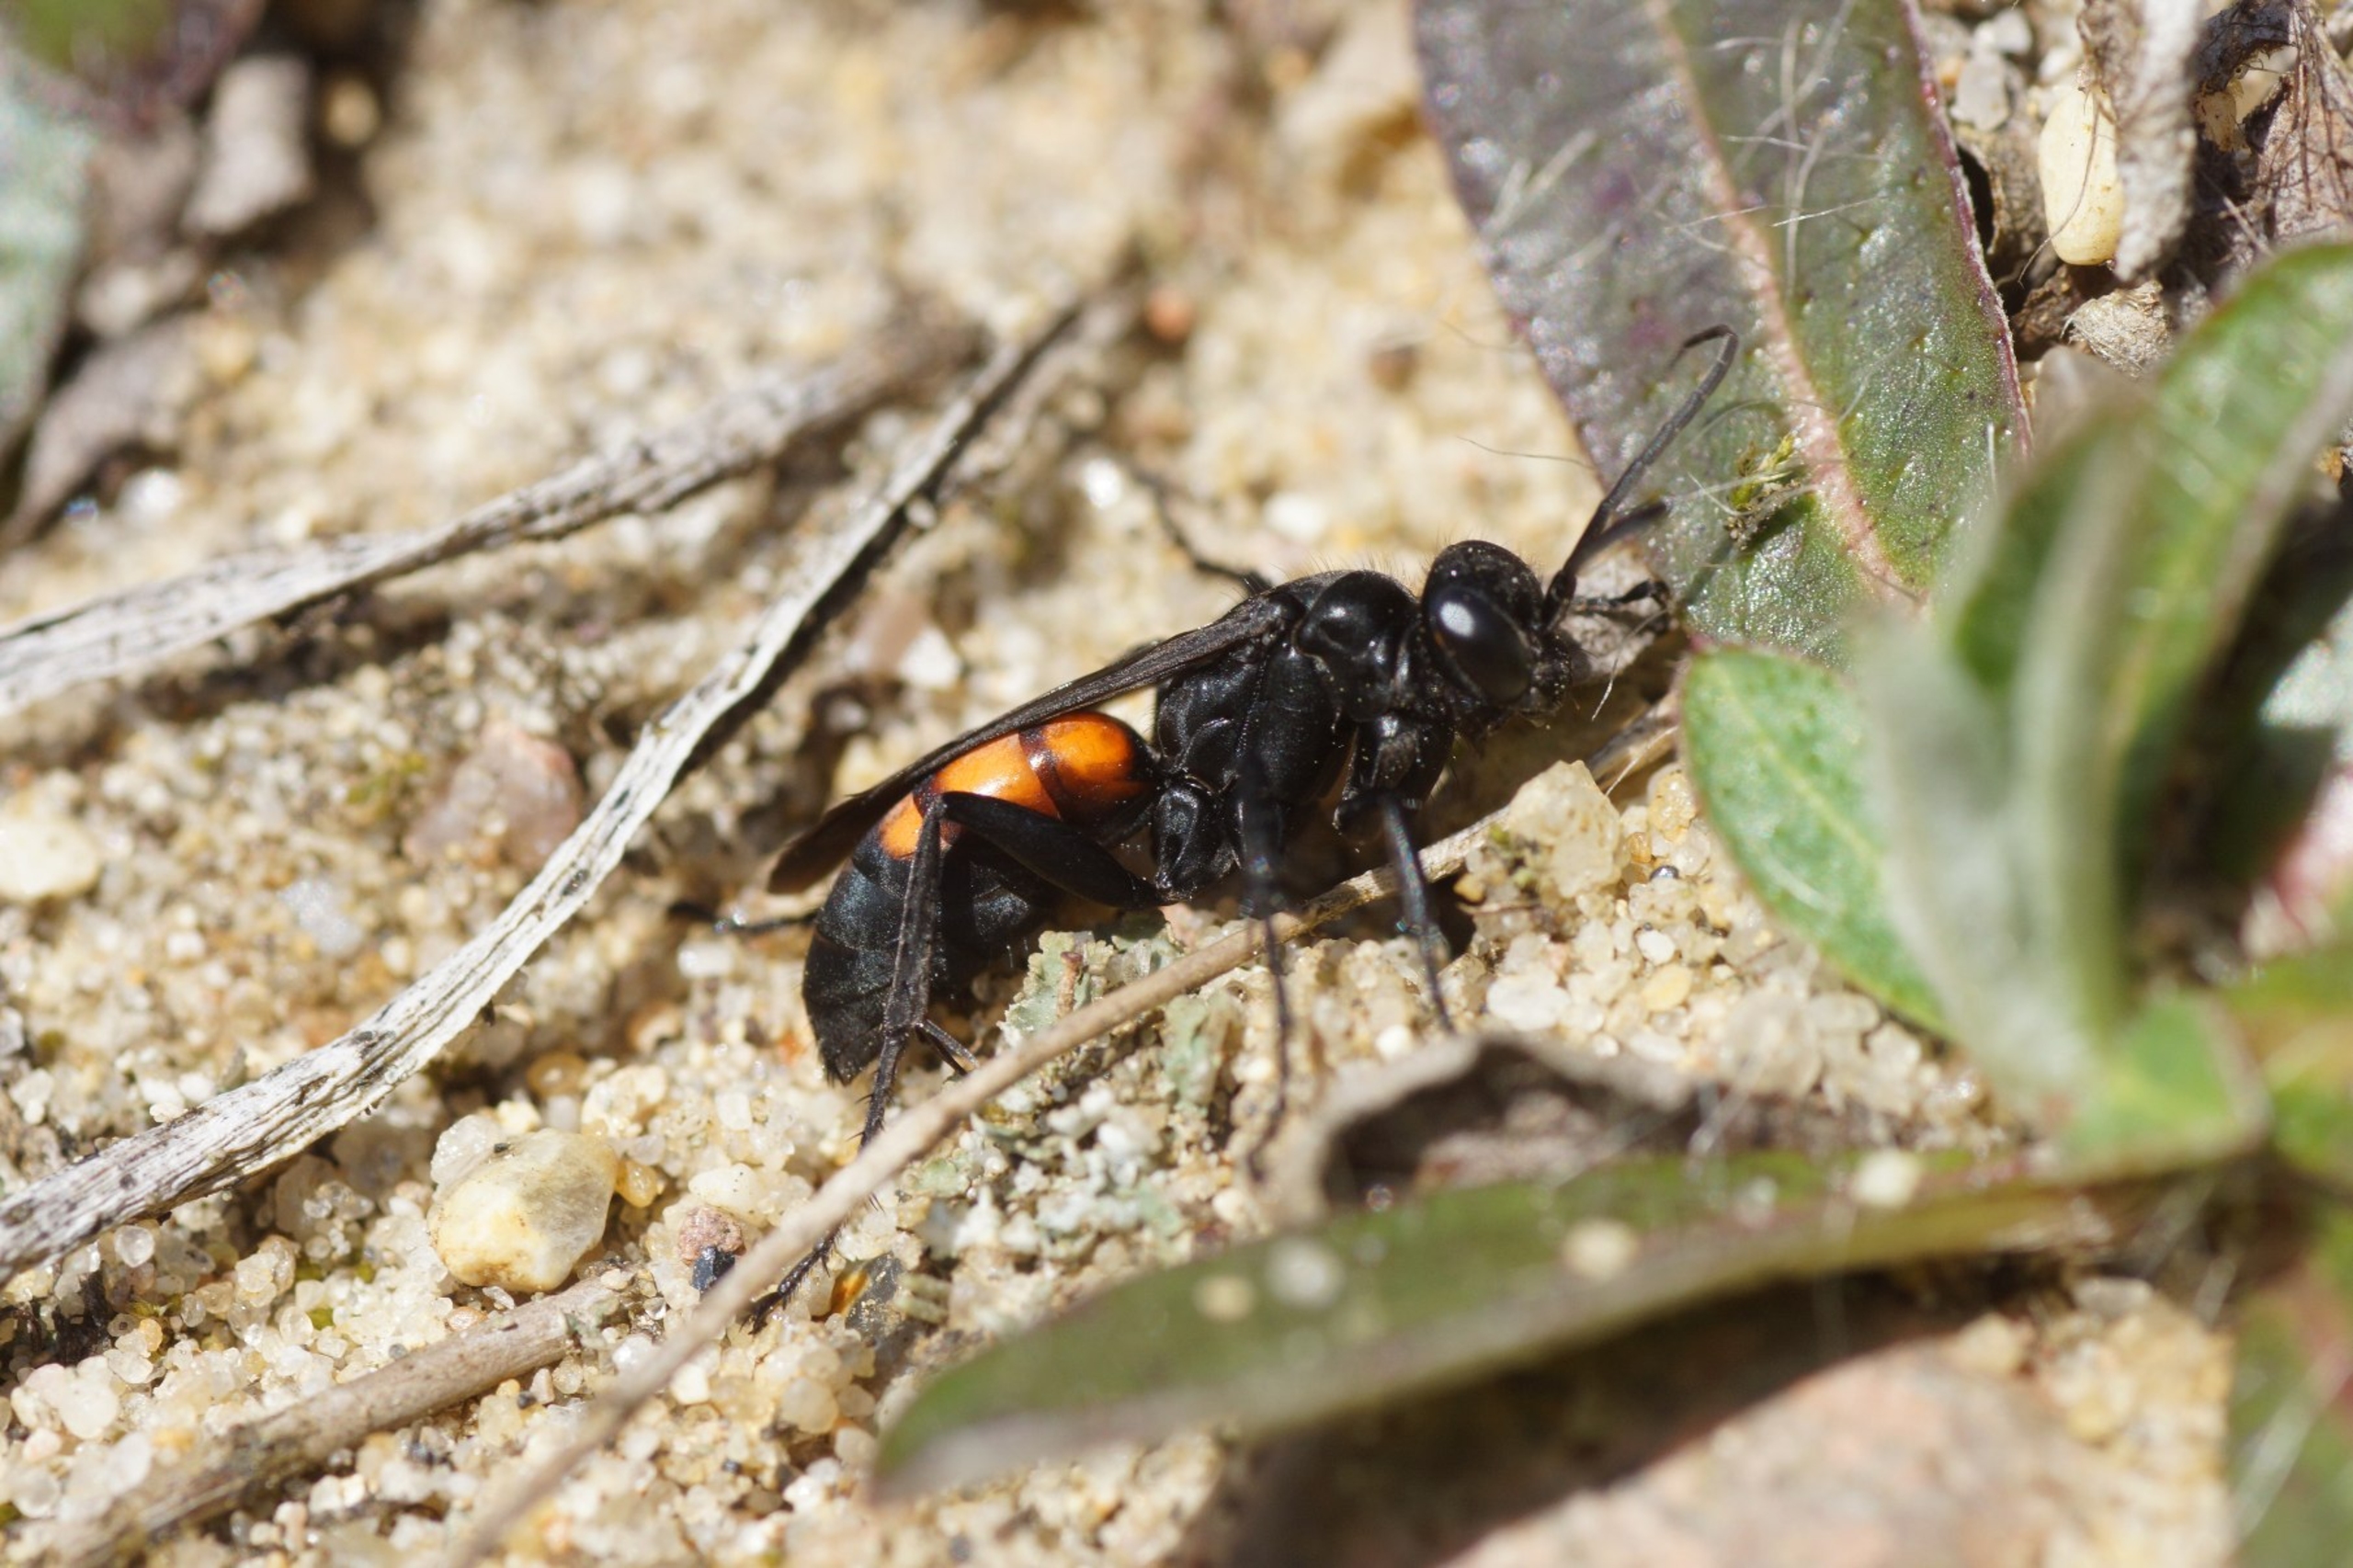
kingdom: Animalia
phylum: Arthropoda
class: Insecta
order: Hymenoptera
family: Pompilidae
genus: Anoplius
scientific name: Anoplius viaticus
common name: Almindelig vejhveps
